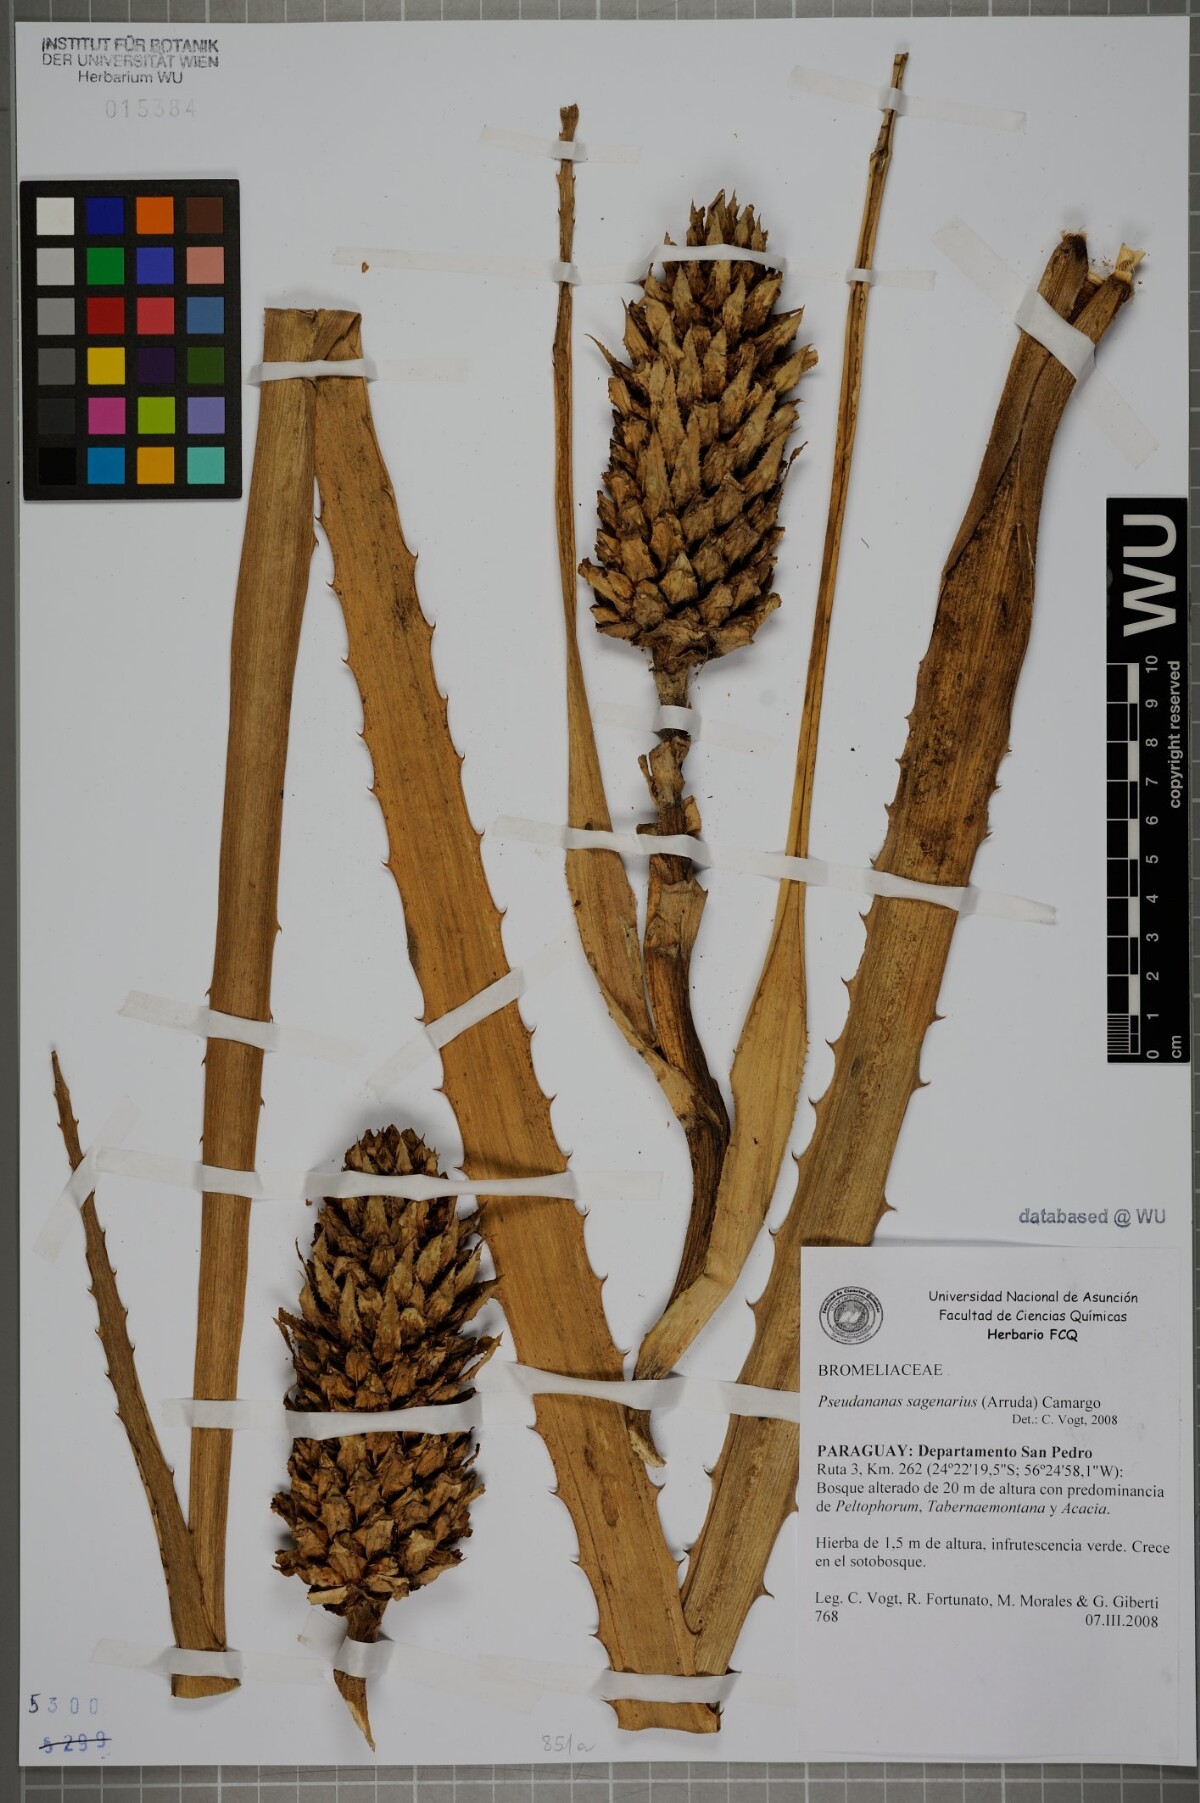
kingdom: Plantae
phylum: Tracheophyta
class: Liliopsida
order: Poales
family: Bromeliaceae
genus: Ananas
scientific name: Ananas comosus
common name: Pineapple
